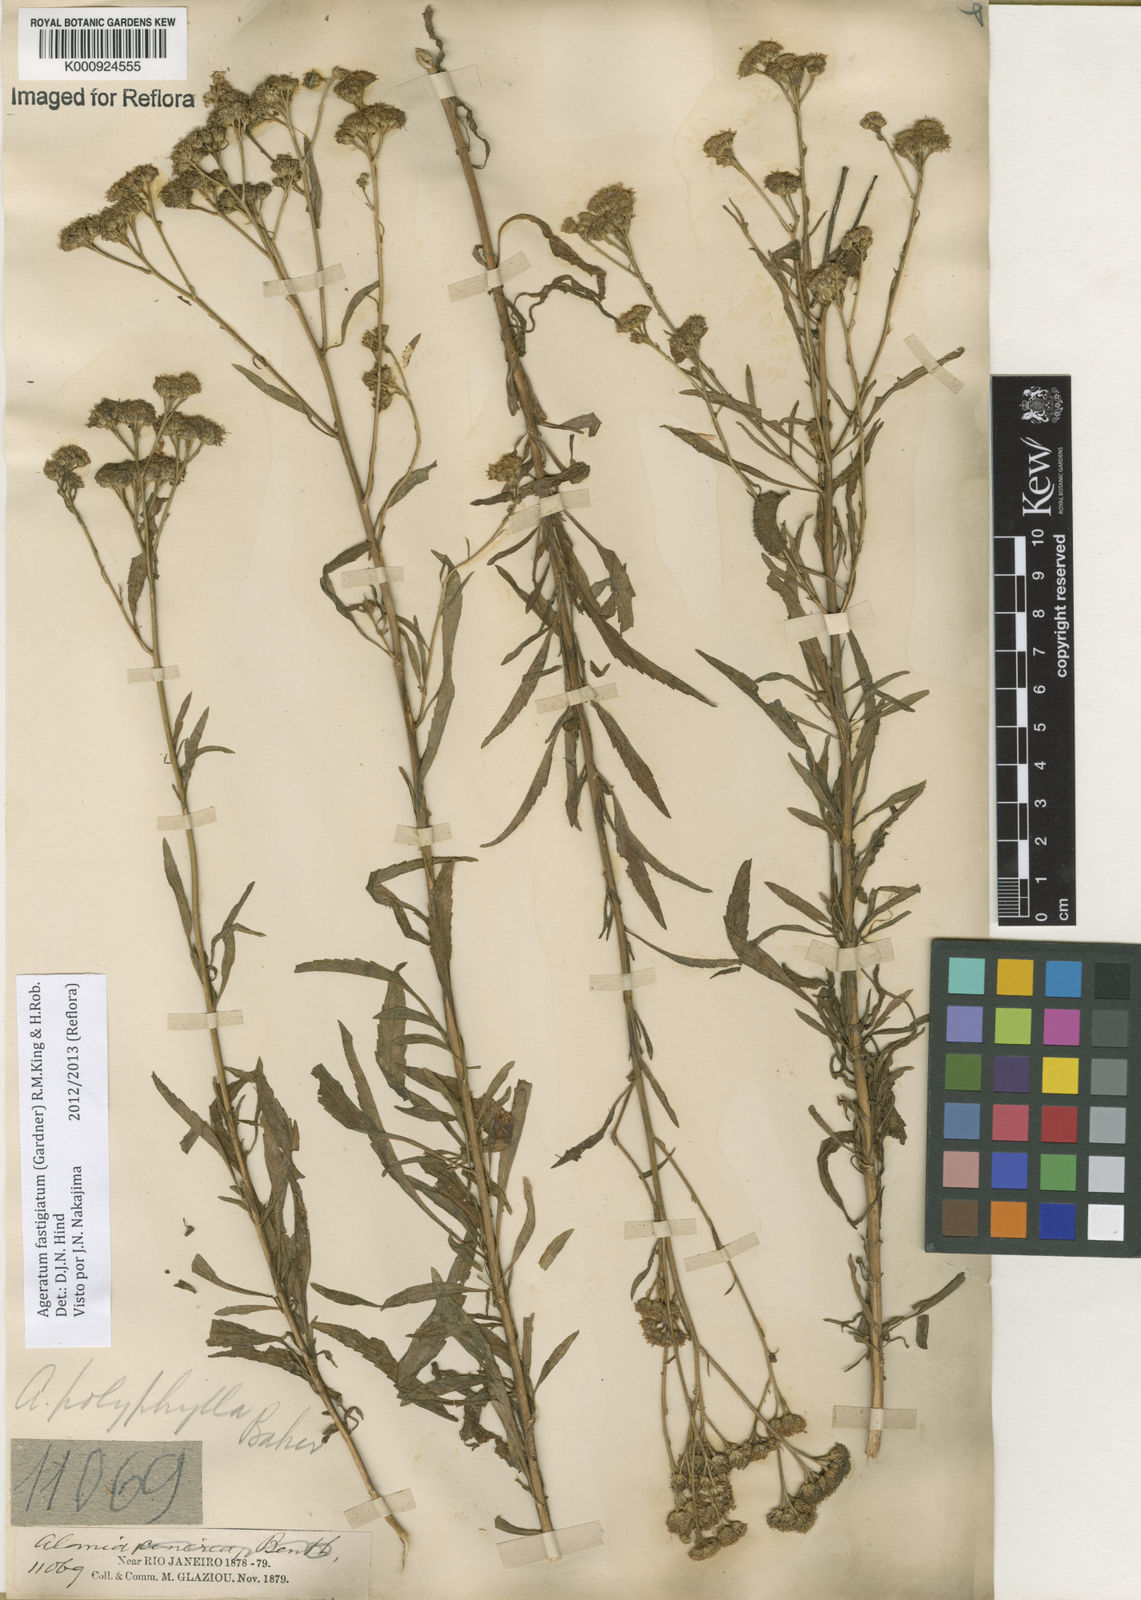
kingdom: Plantae
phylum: Tracheophyta
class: Magnoliopsida
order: Asterales
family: Asteraceae
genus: Ageratum
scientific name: Ageratum fastigiatum
